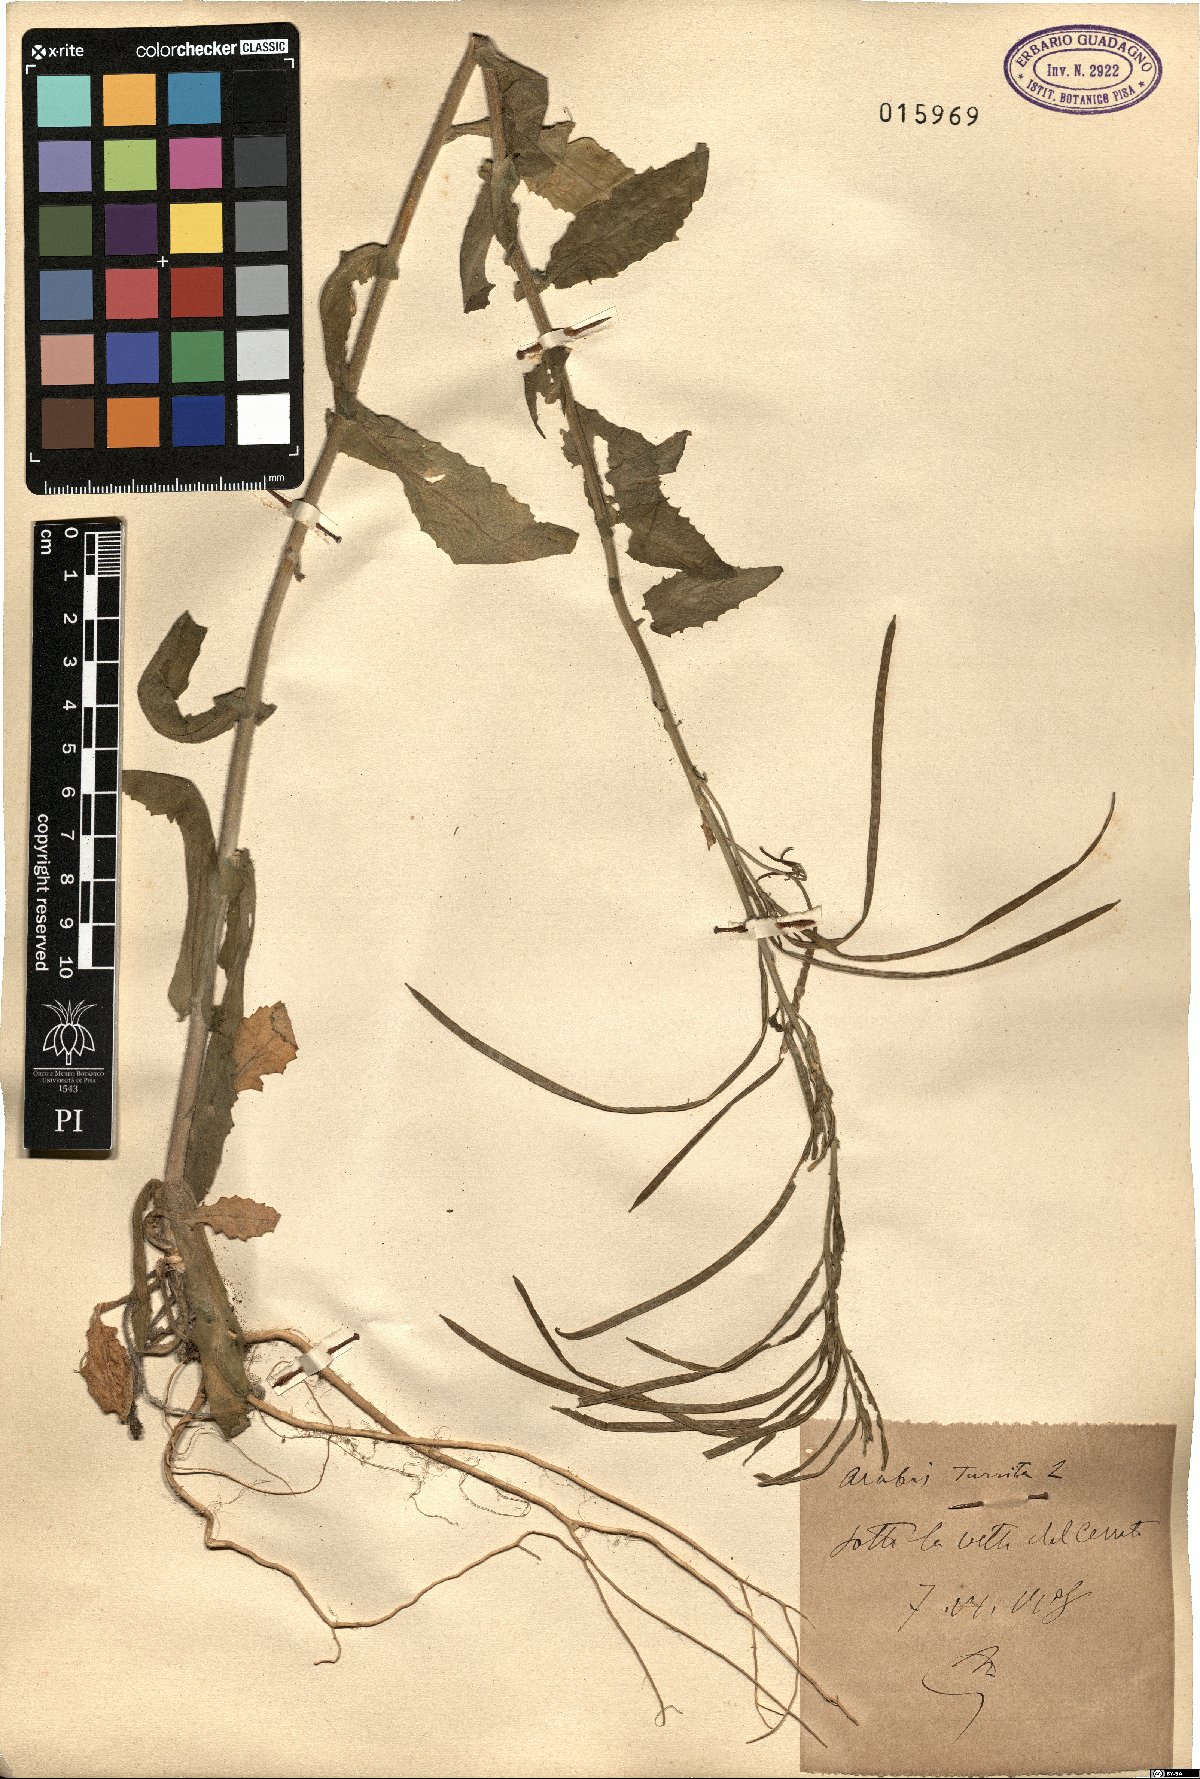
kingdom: Plantae
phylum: Tracheophyta
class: Magnoliopsida
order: Brassicales
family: Brassicaceae
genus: Pseudoturritis
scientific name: Pseudoturritis turrita
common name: Tower cress
